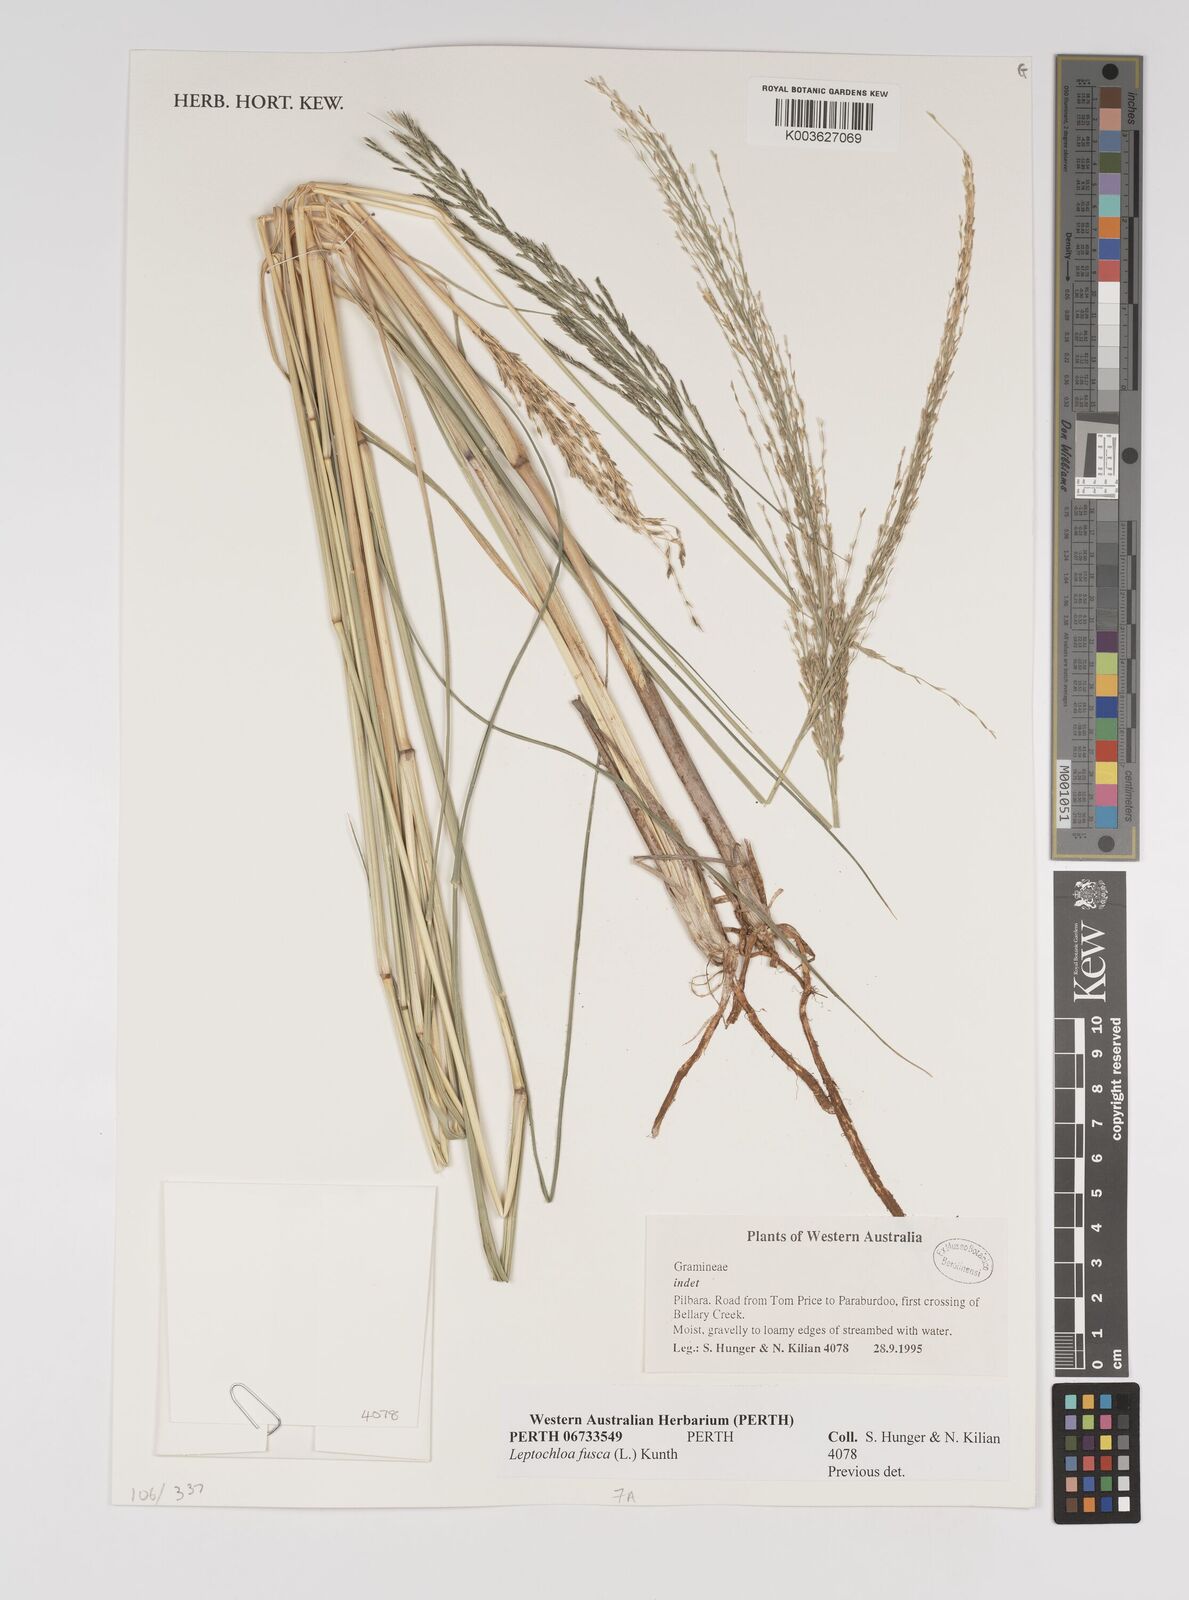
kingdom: Plantae
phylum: Tracheophyta
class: Liliopsida
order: Poales
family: Poaceae
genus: Diplachne
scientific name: Diplachne fusca
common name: Brown beetle grass
